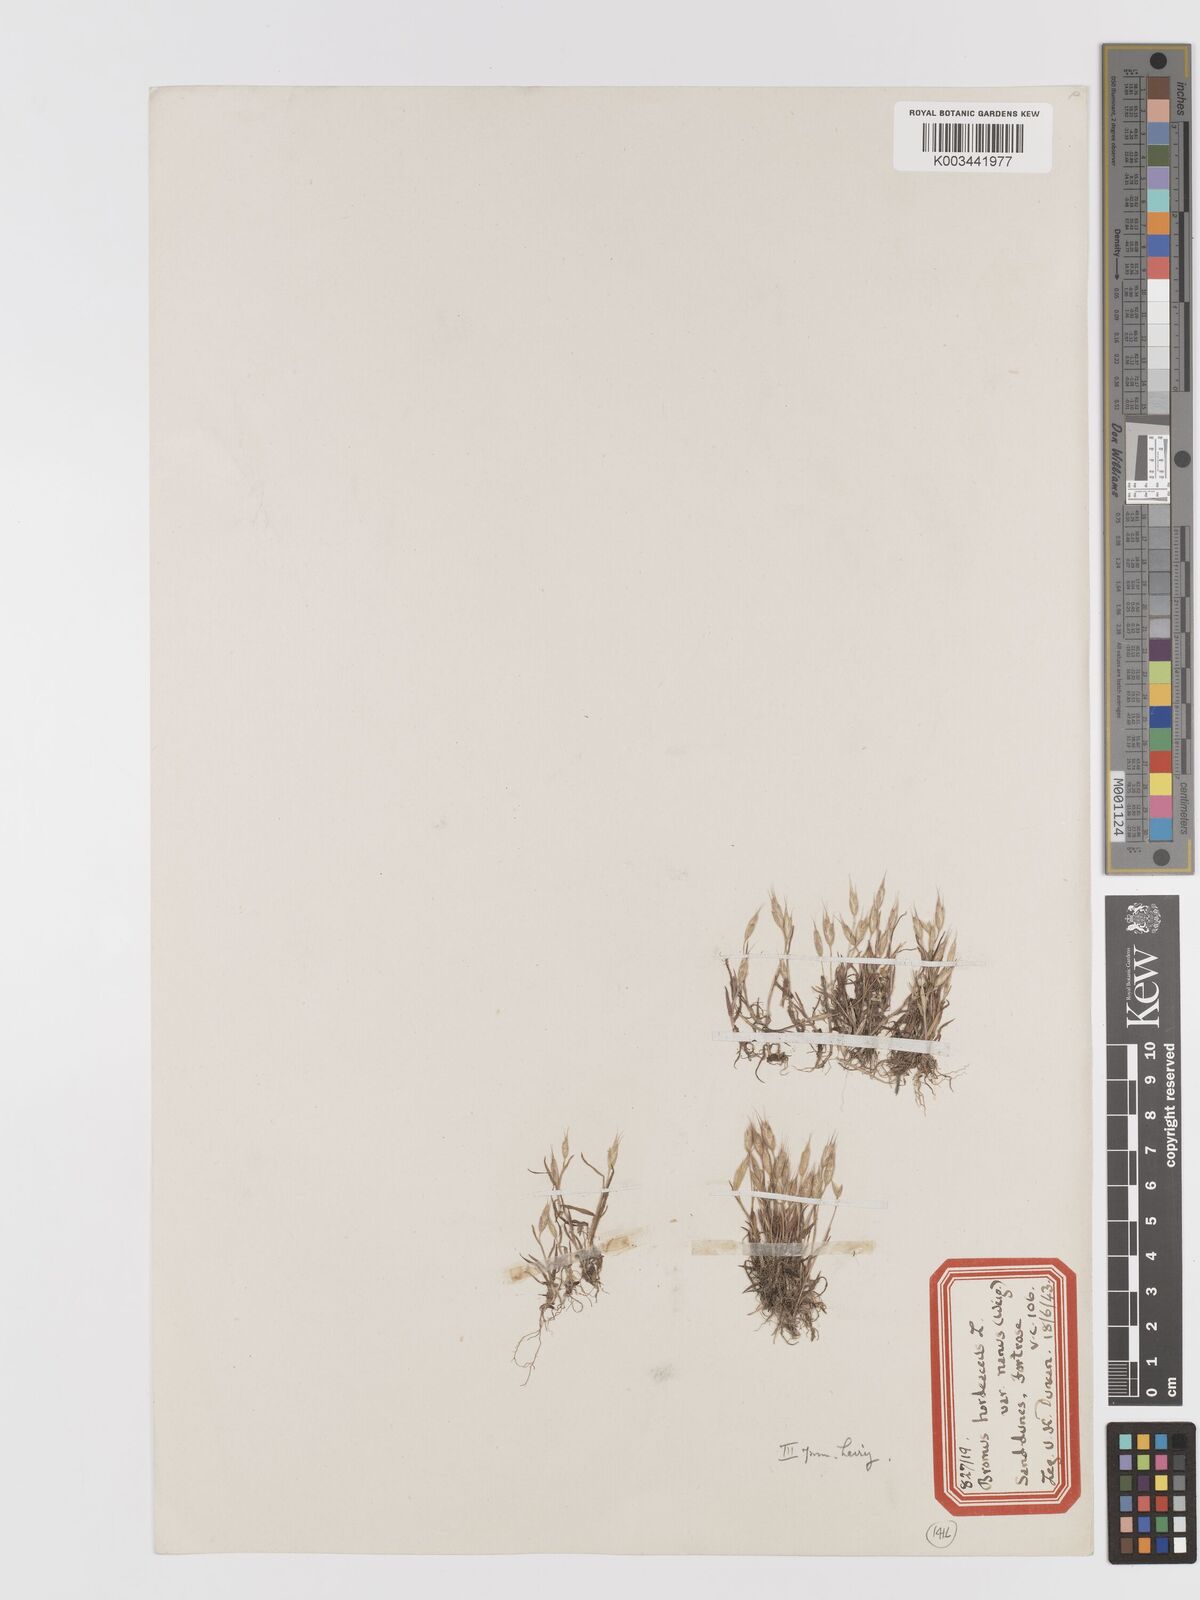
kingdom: Plantae
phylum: Tracheophyta
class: Liliopsida
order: Poales
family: Poaceae
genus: Bromus
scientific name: Bromus hordeaceus
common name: Soft brome
